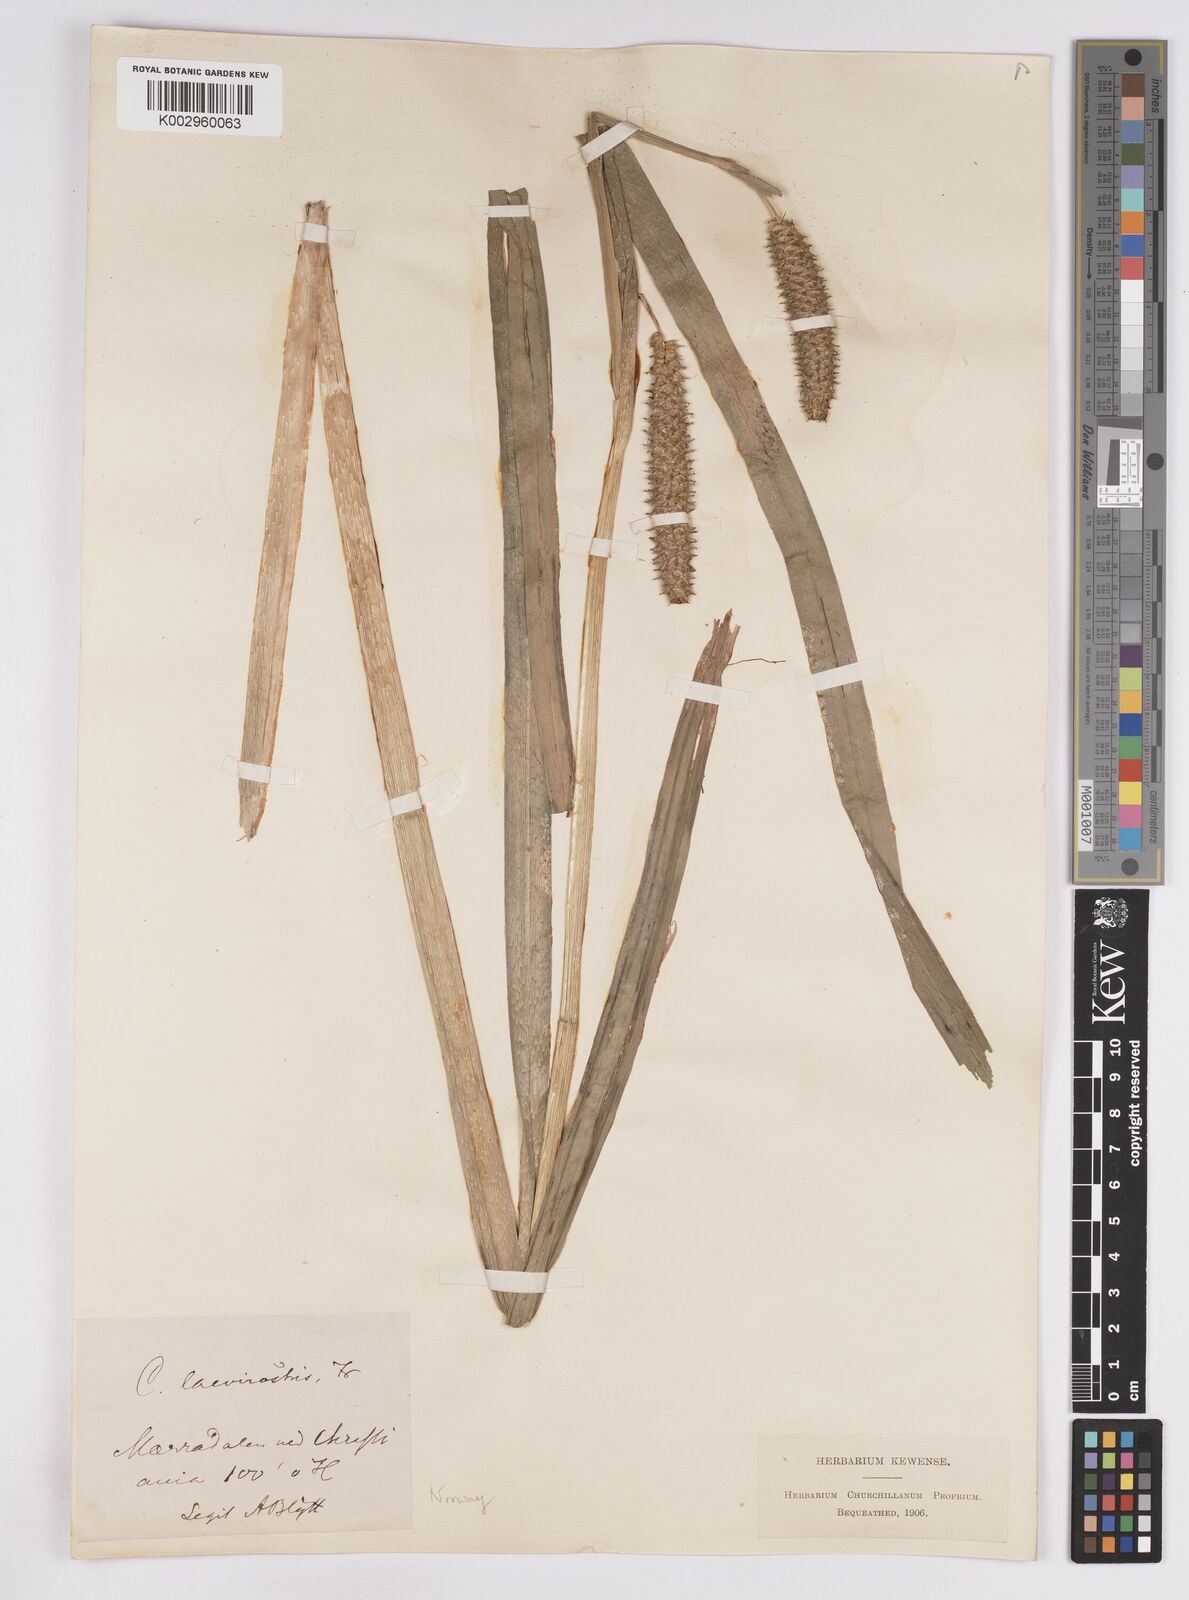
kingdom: Plantae
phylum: Tracheophyta
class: Liliopsida
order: Poales
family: Cyperaceae
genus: Carex
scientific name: Carex utriculata
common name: Beaked sedge
